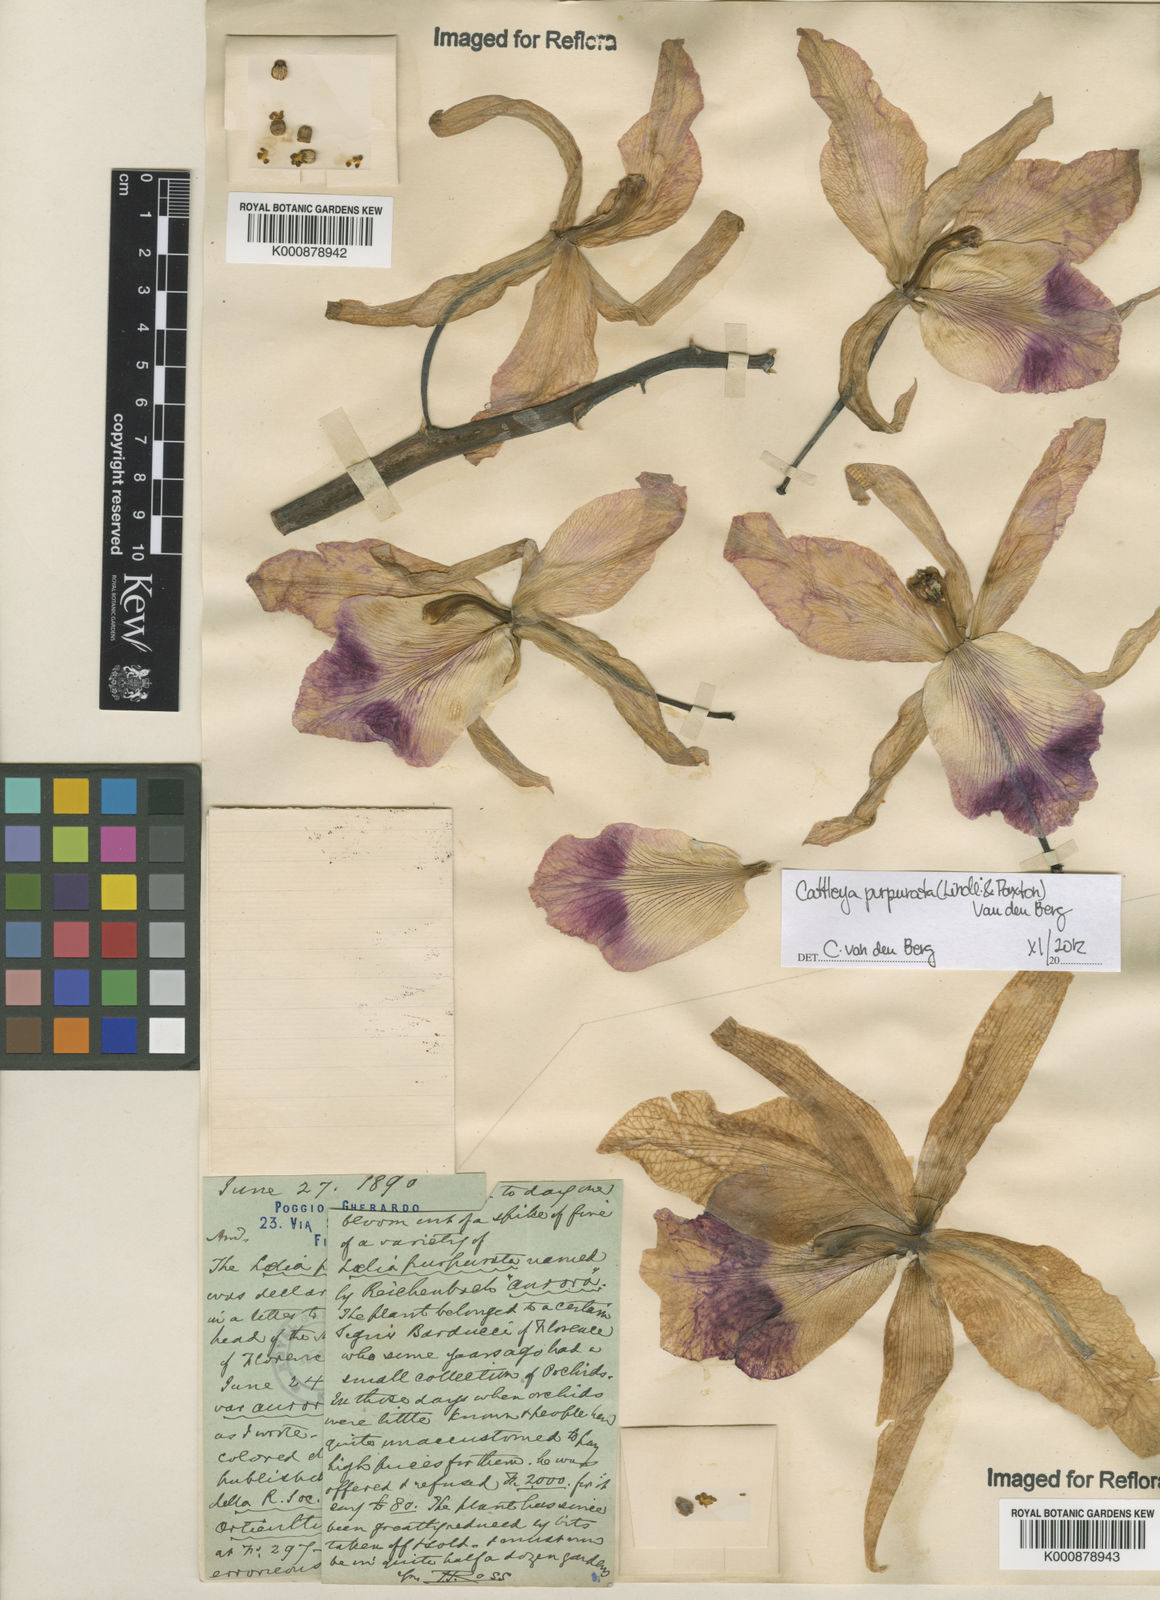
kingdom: Plantae
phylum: Tracheophyta
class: Liliopsida
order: Asparagales
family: Orchidaceae
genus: Cattleya
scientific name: Cattleya
